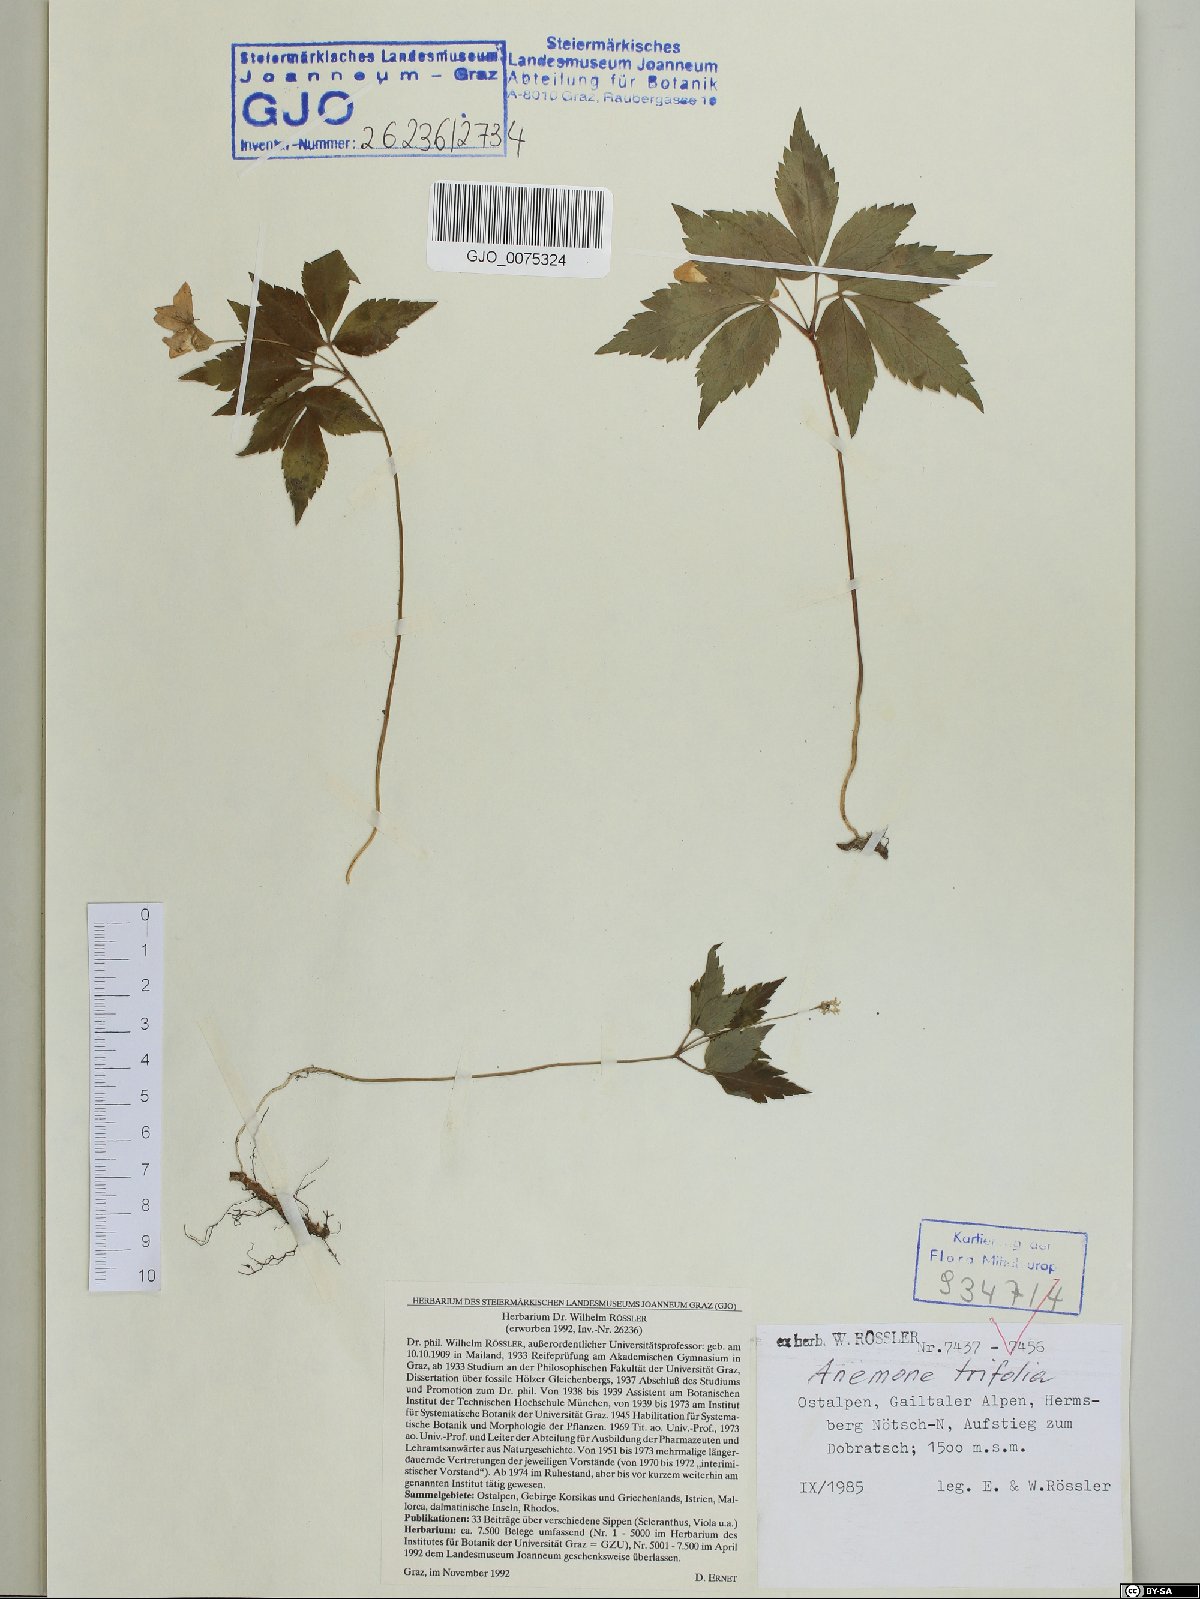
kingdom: Plantae
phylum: Tracheophyta
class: Magnoliopsida
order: Ranunculales
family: Ranunculaceae
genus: Anemone
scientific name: Anemone trifolia
